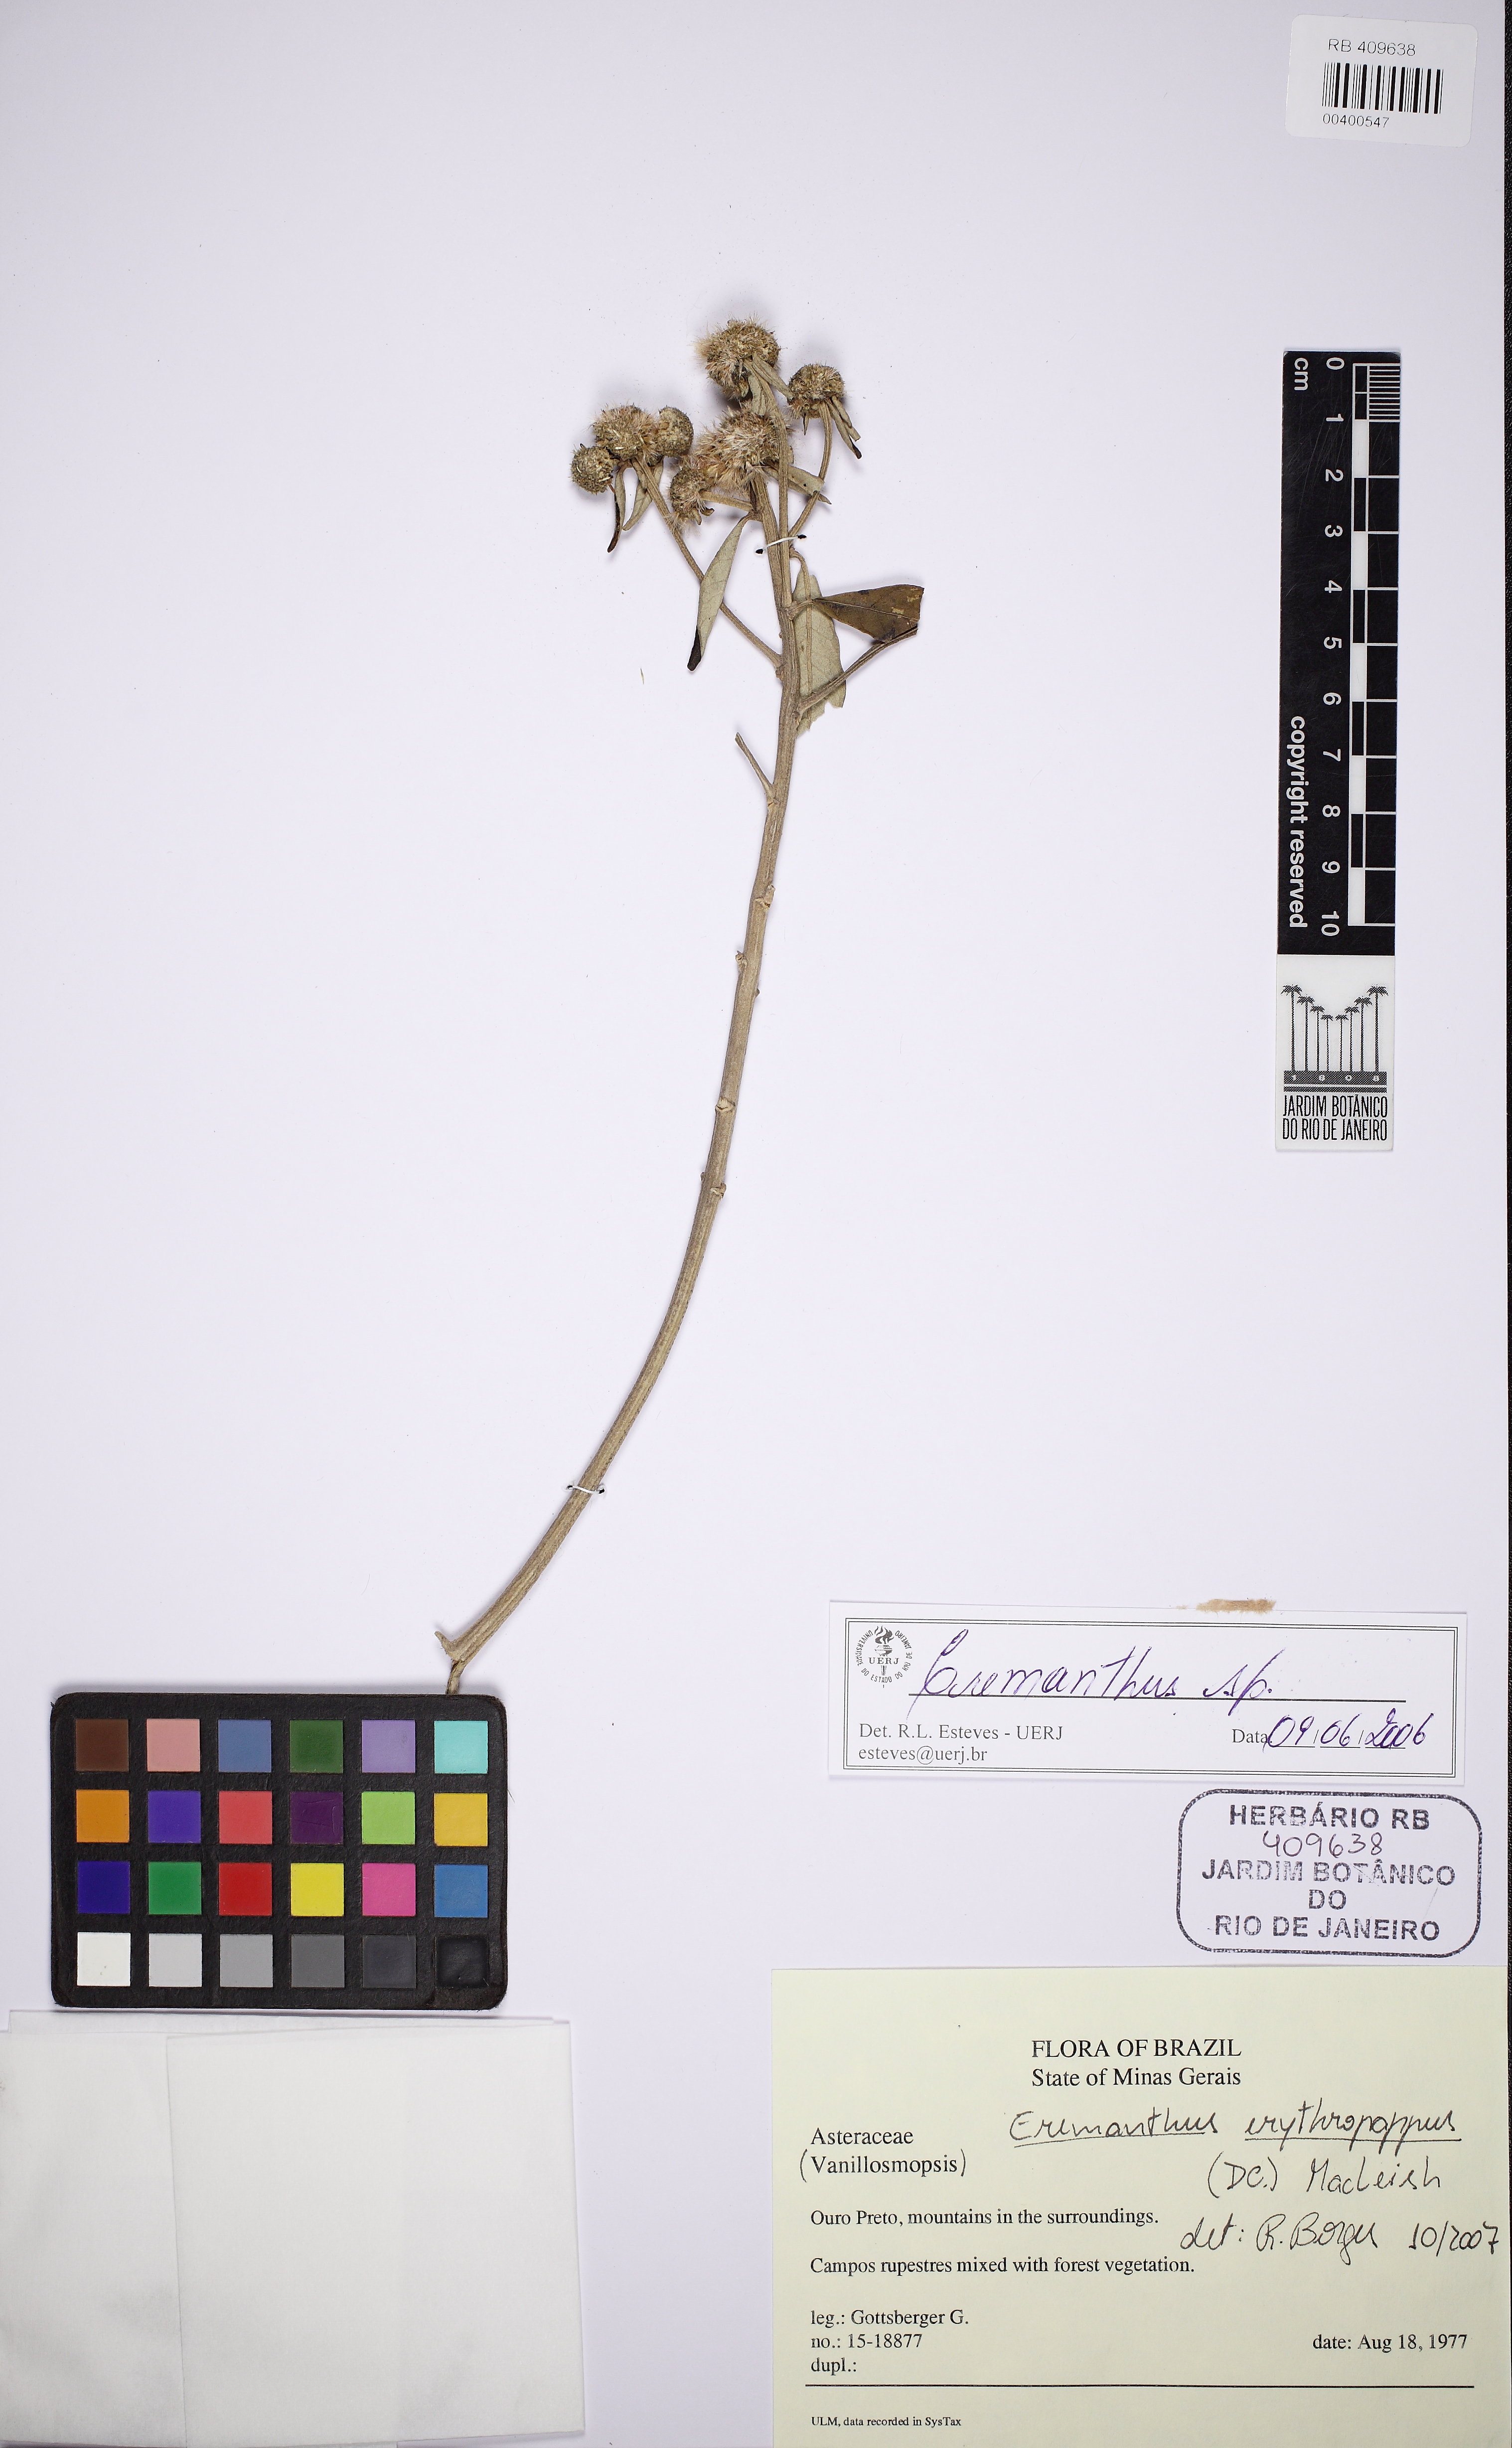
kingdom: Plantae
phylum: Tracheophyta
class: Magnoliopsida
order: Asterales
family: Asteraceae
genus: Eremanthus
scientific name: Eremanthus erythropappus
